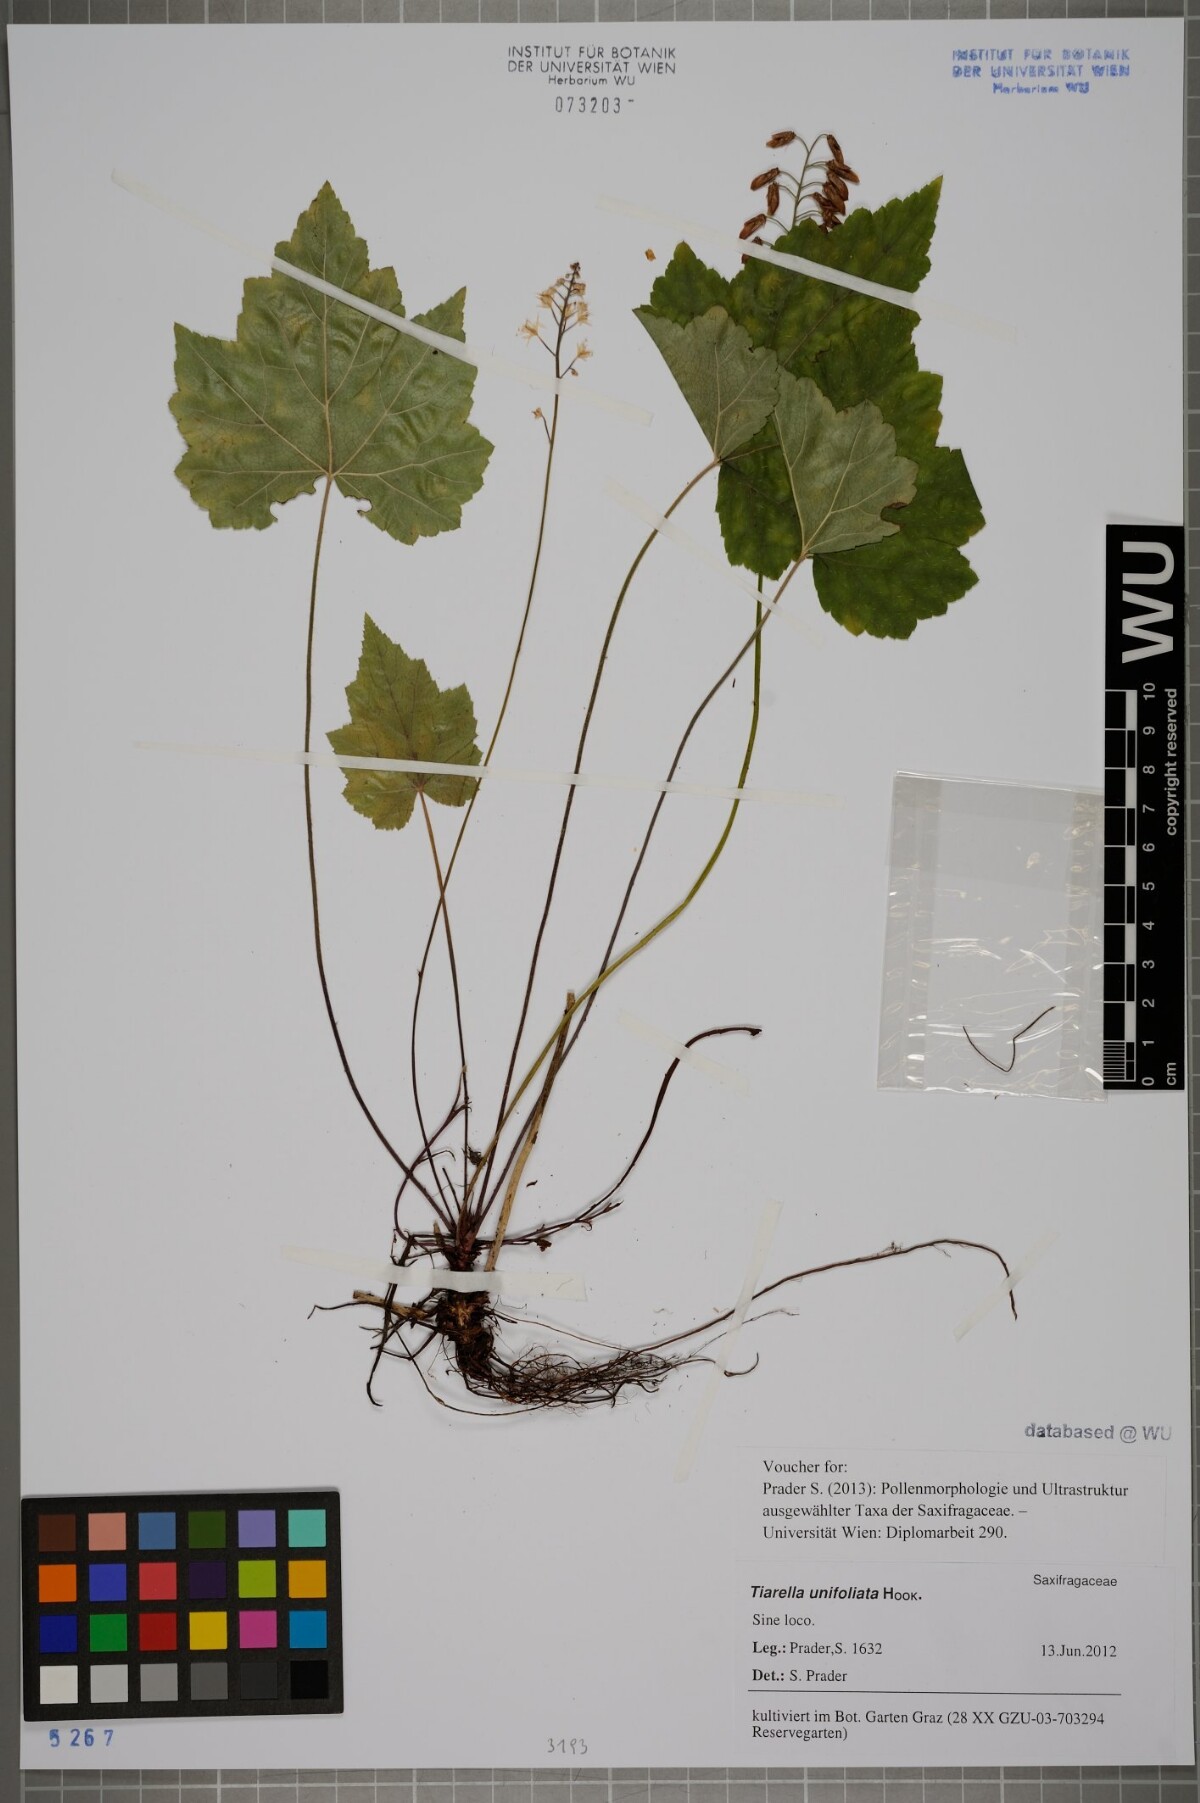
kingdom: Plantae
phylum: Tracheophyta
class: Magnoliopsida
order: Saxifragales
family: Saxifragaceae
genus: Tiarella
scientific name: Tiarella trifoliata
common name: Sugar-scoop
